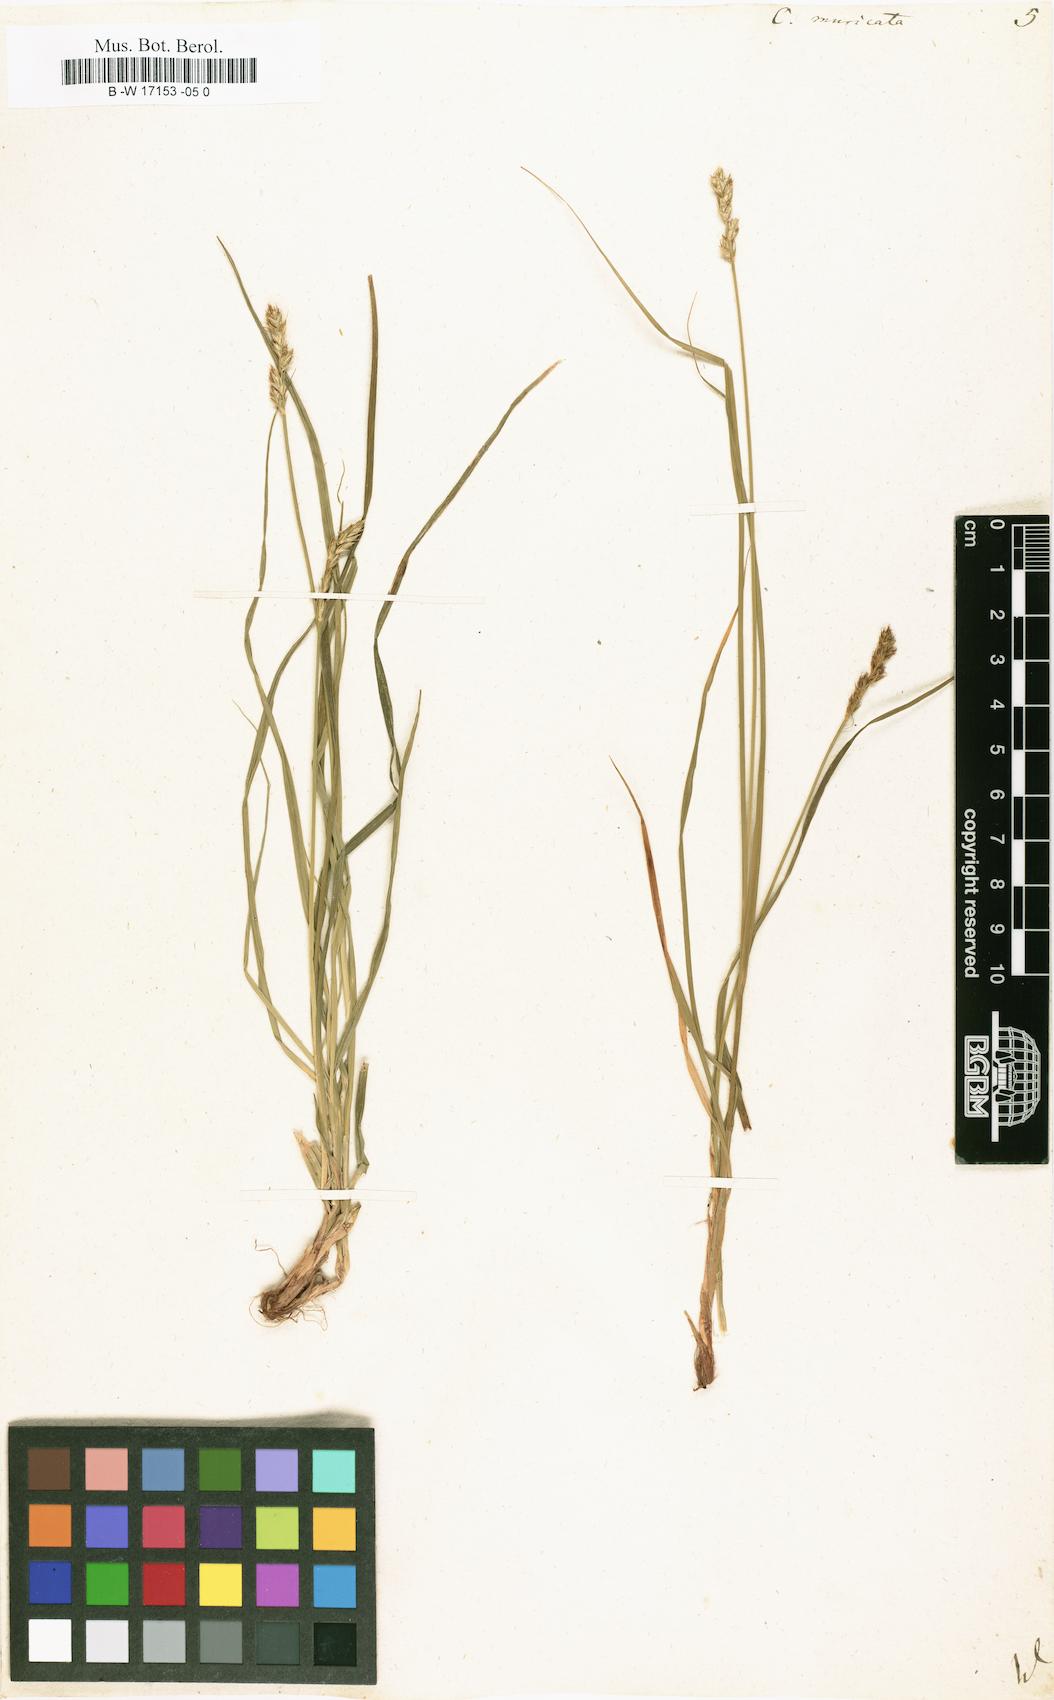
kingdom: Plantae
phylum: Tracheophyta
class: Liliopsida
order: Poales
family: Cyperaceae
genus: Carex
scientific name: Carex muricata
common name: Rough sedge
